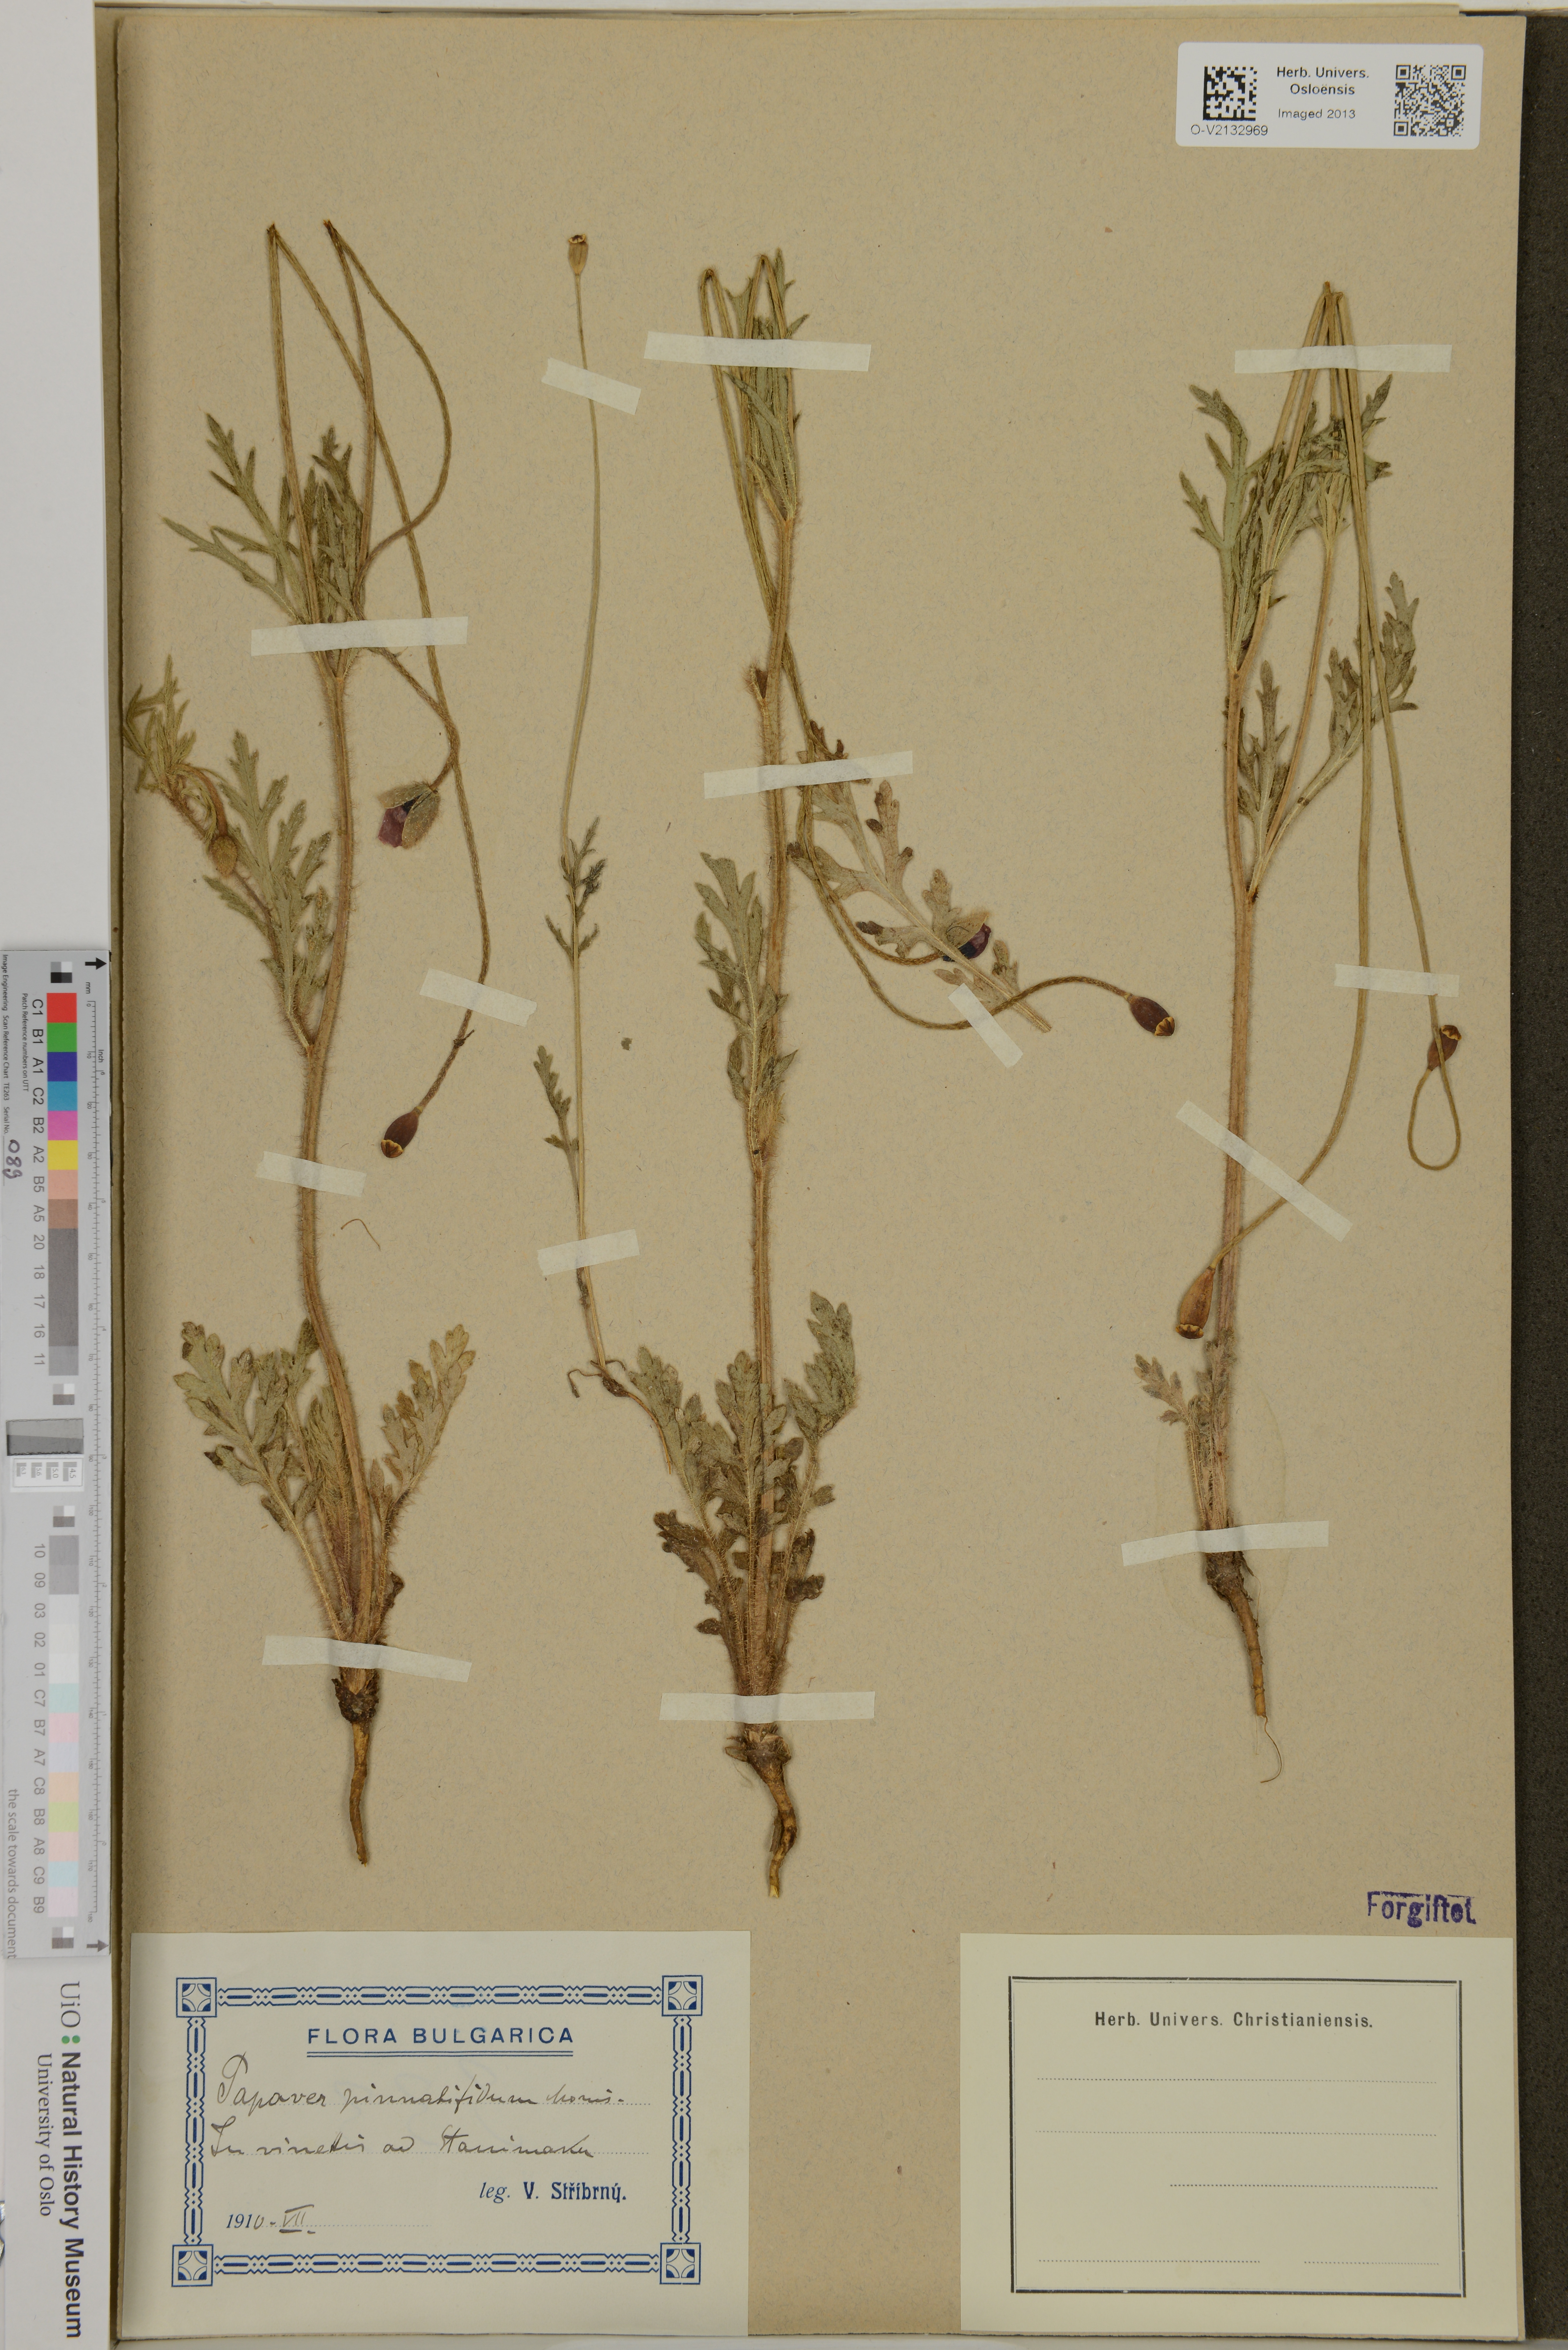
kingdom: Plantae
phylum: Tracheophyta
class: Magnoliopsida
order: Ranunculales
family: Papaveraceae
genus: Papaver
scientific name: Papaver pinnatifidum
